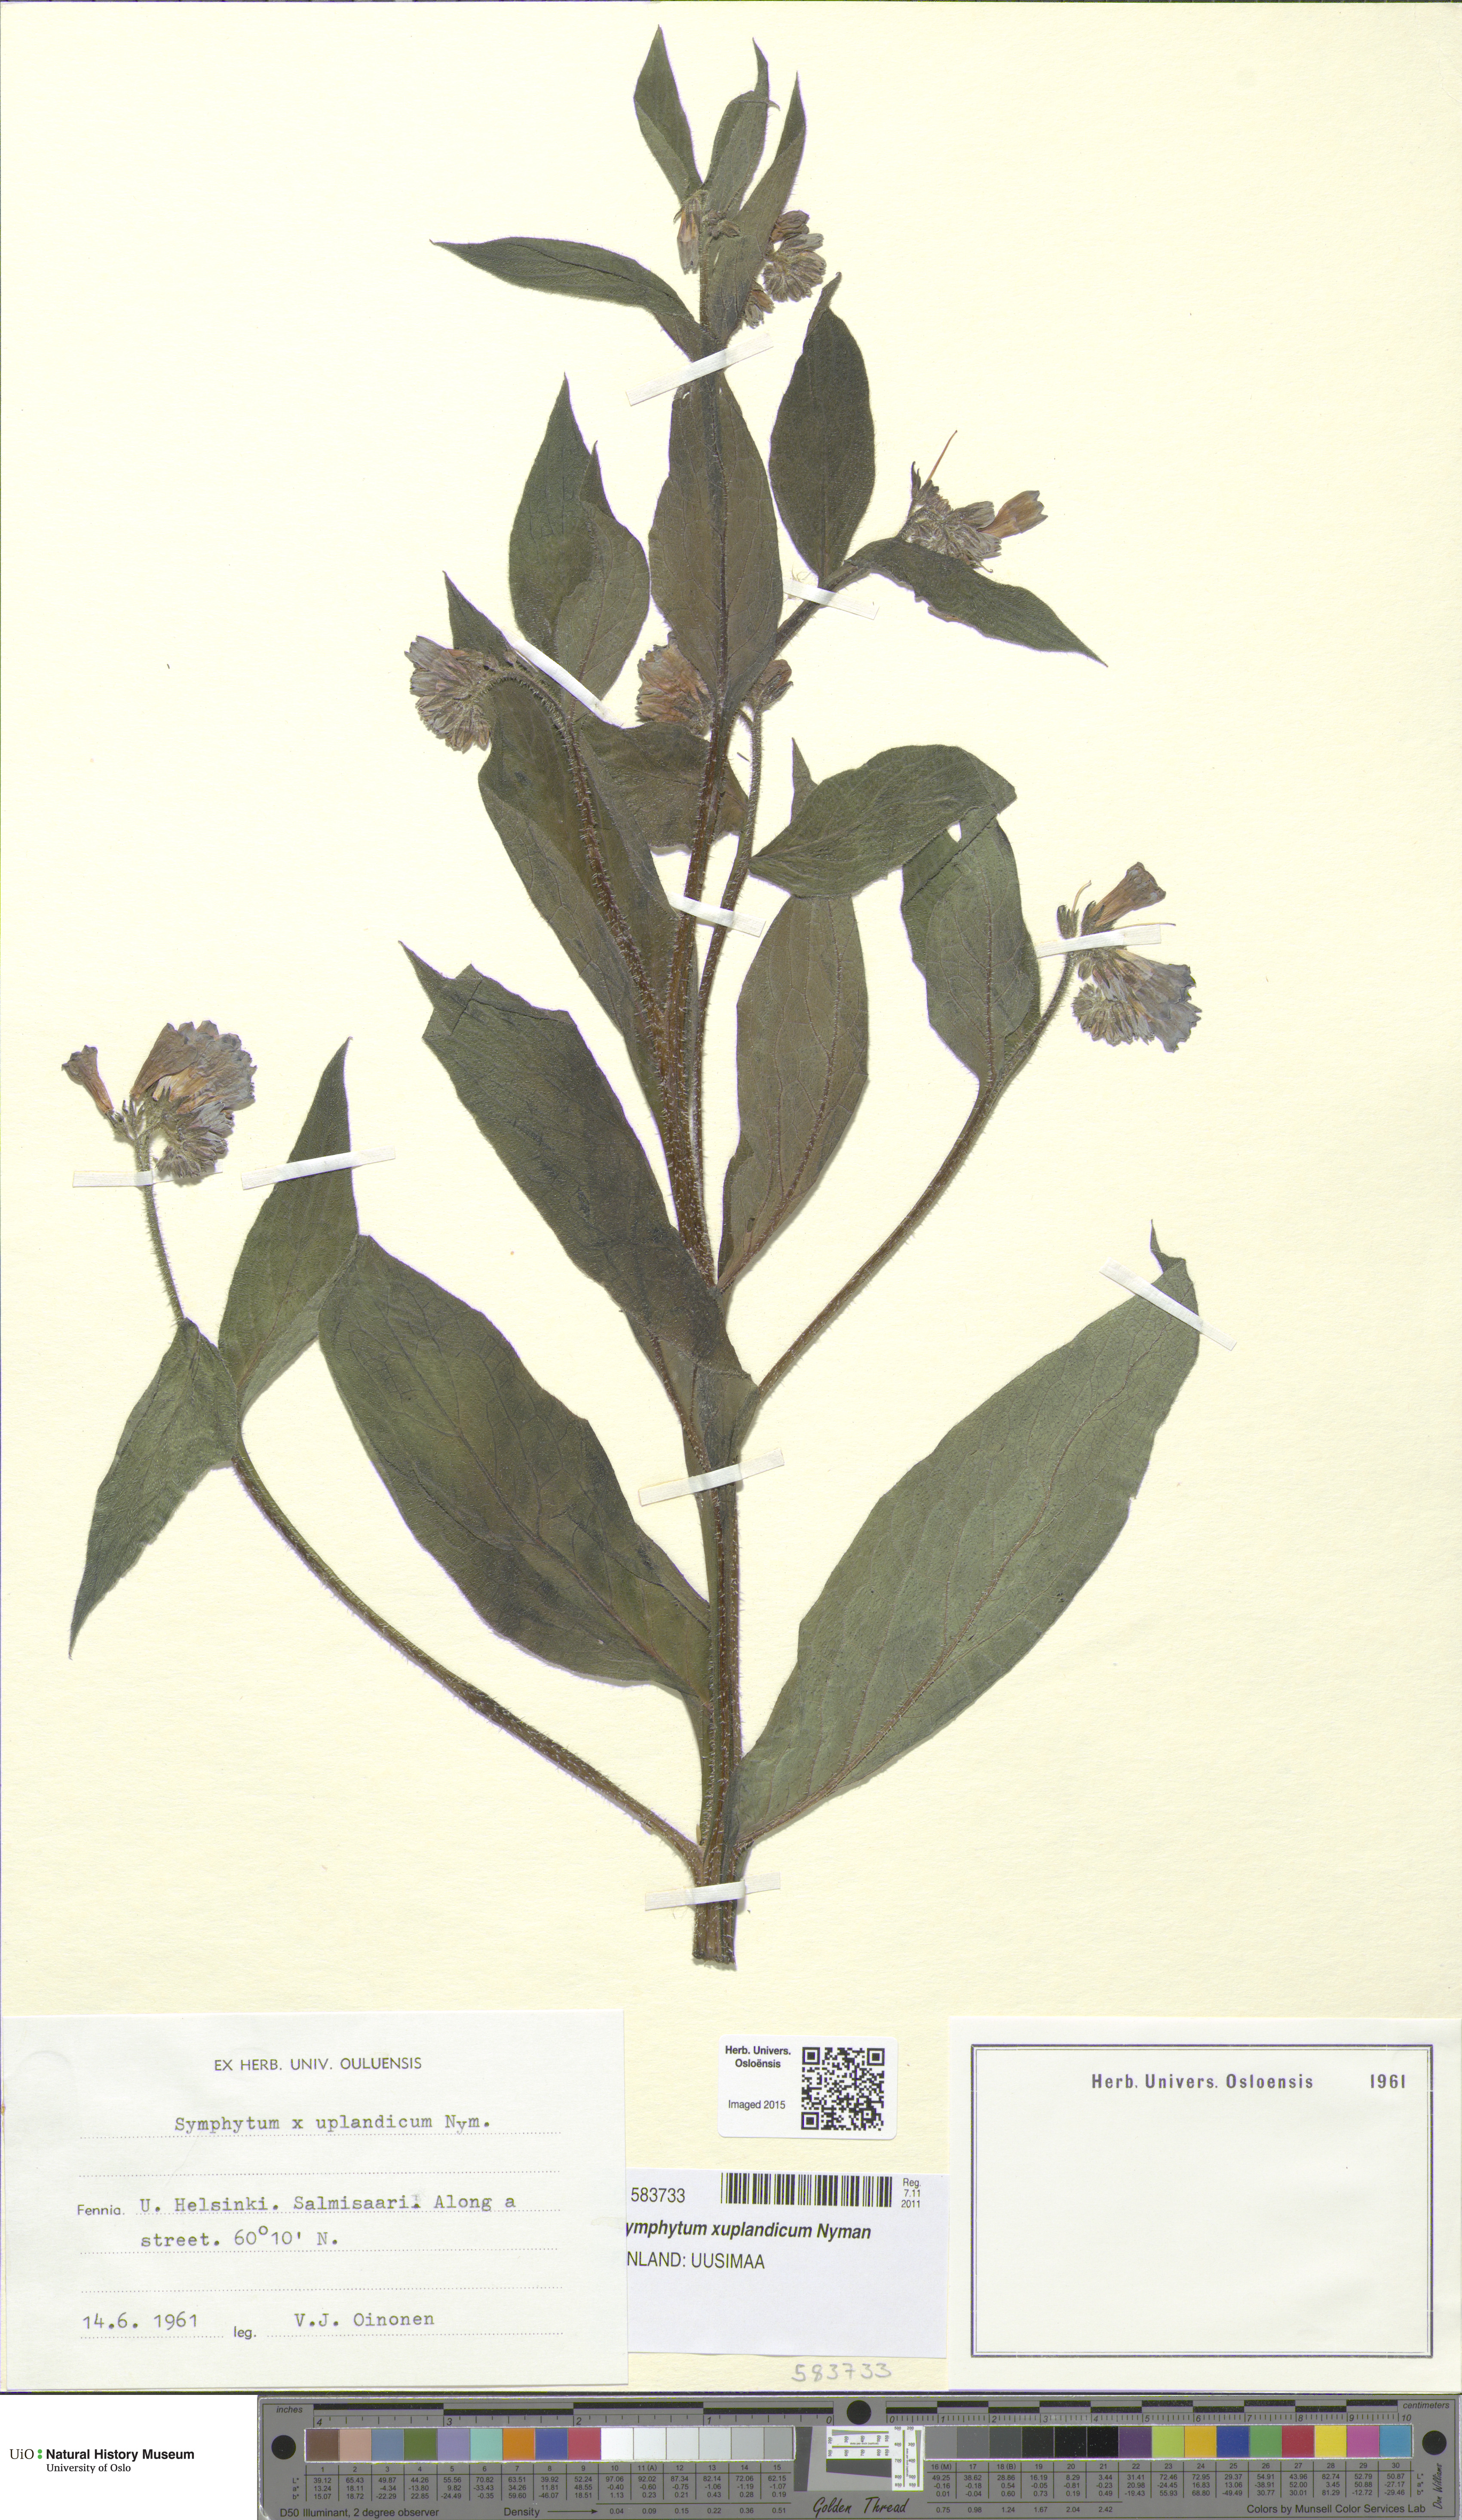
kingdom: Plantae
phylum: Tracheophyta
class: Magnoliopsida
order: Boraginales
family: Boraginaceae
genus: Symphytum
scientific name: Symphytum uplandicum
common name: Russian comfrey
